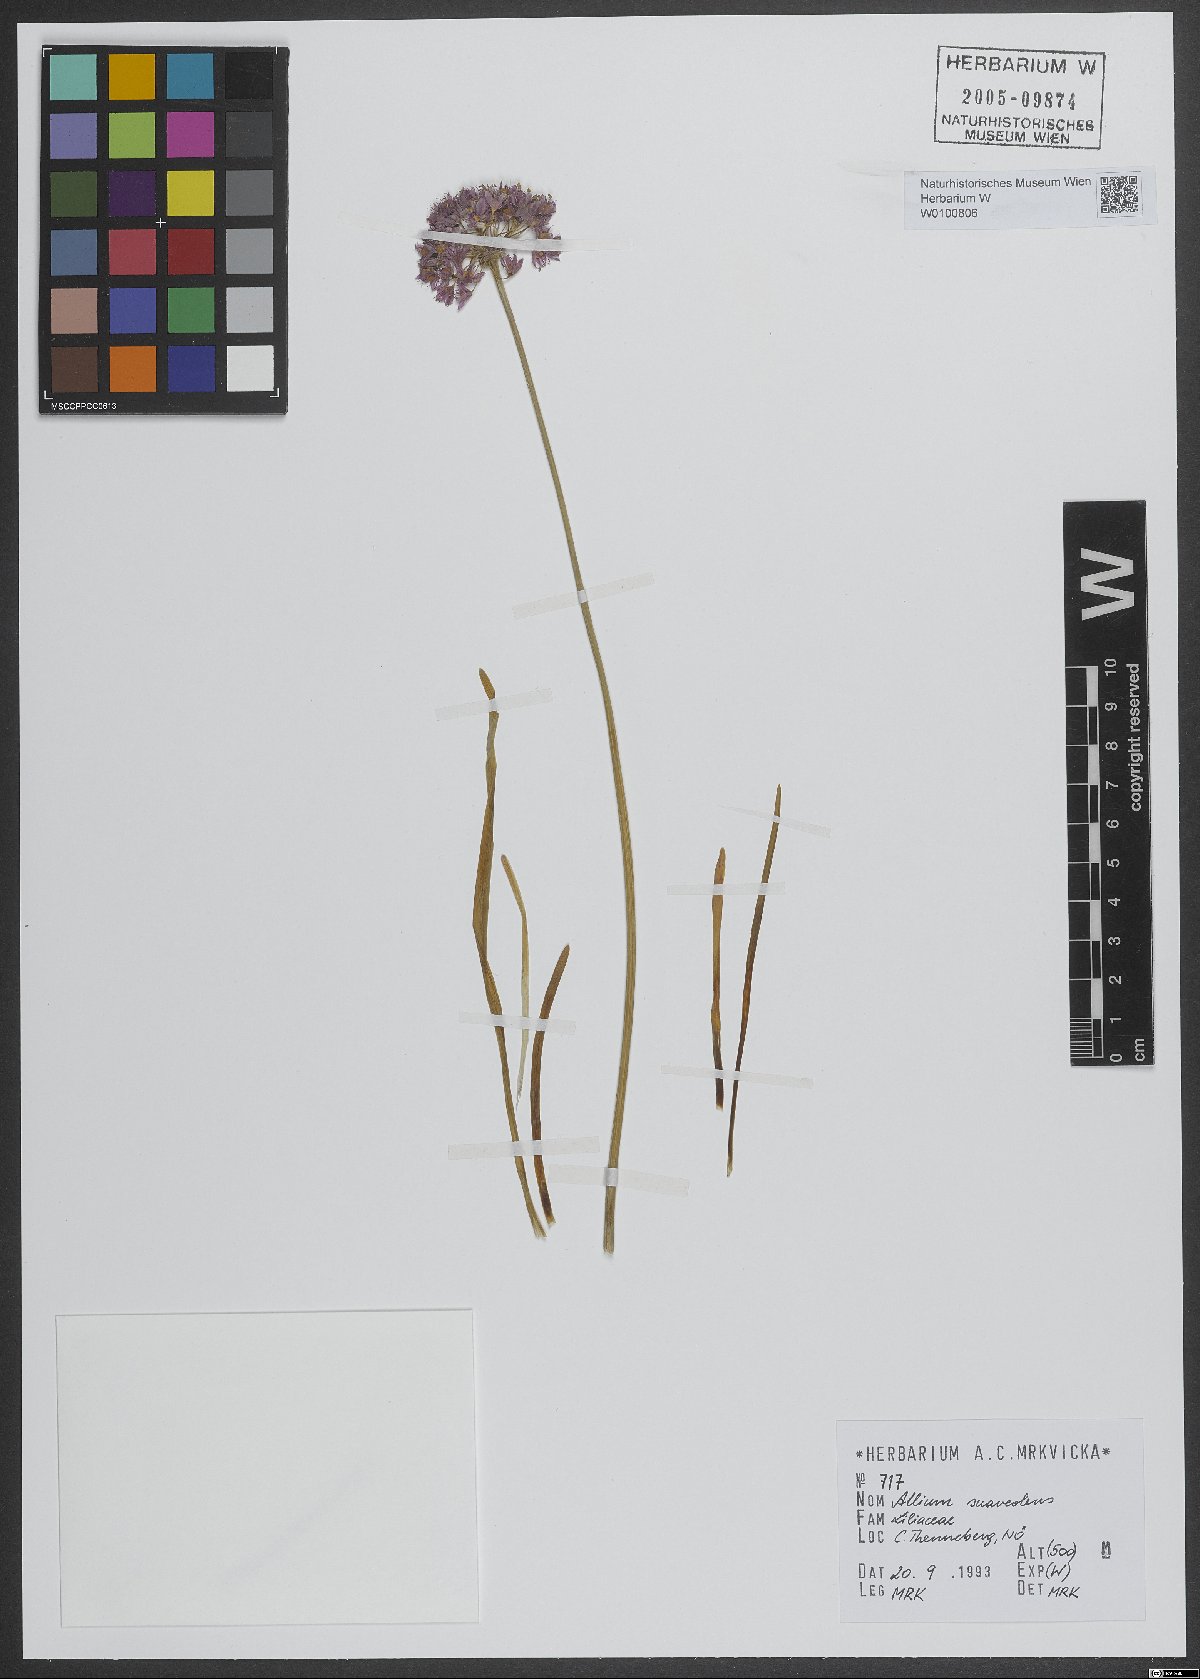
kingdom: Plantae
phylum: Tracheophyta
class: Liliopsida
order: Asparagales
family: Amaryllidaceae
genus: Allium
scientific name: Allium suaveolens
